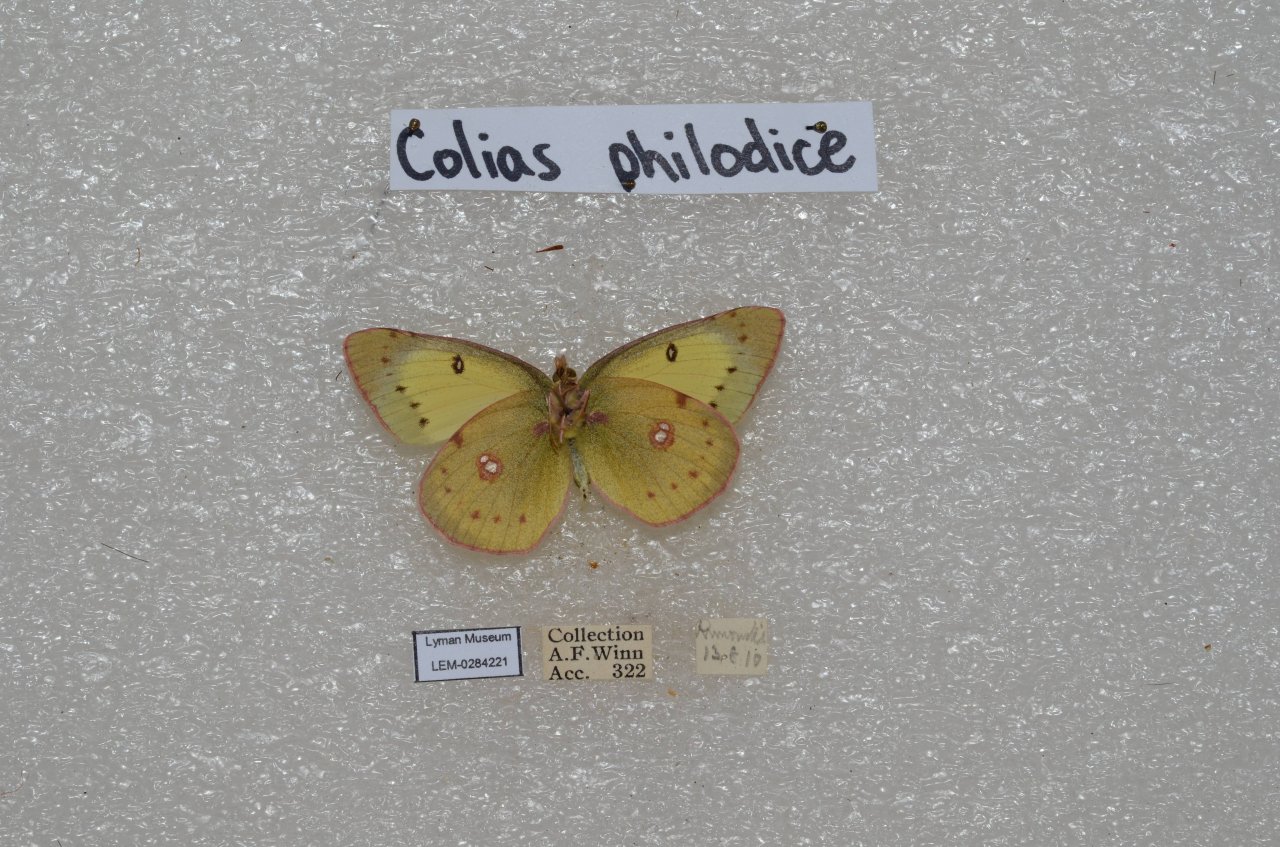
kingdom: Animalia
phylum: Arthropoda
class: Insecta
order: Lepidoptera
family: Pieridae
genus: Colias
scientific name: Colias philodice
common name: Clouded Sulphur
